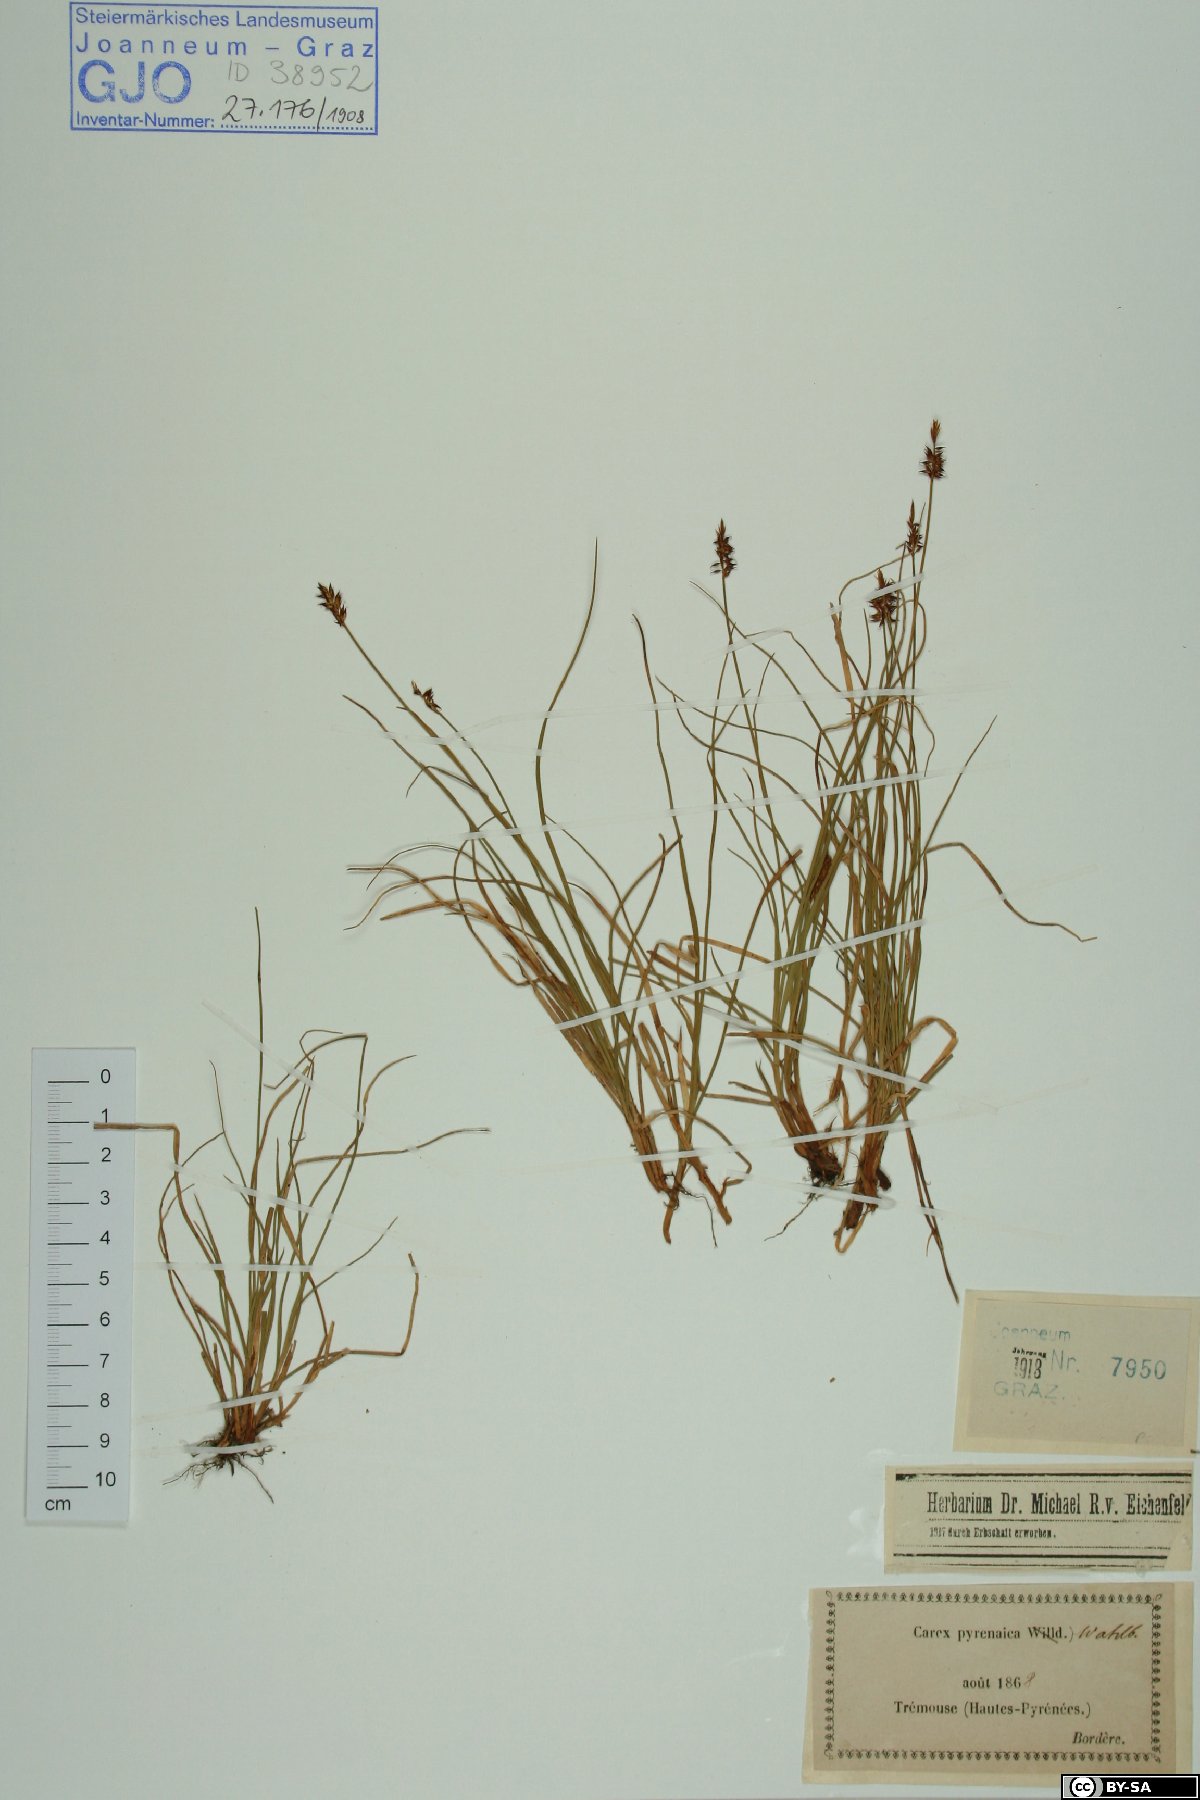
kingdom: Plantae
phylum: Tracheophyta
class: Liliopsida
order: Poales
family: Cyperaceae
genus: Carex
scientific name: Carex pyrenaica
